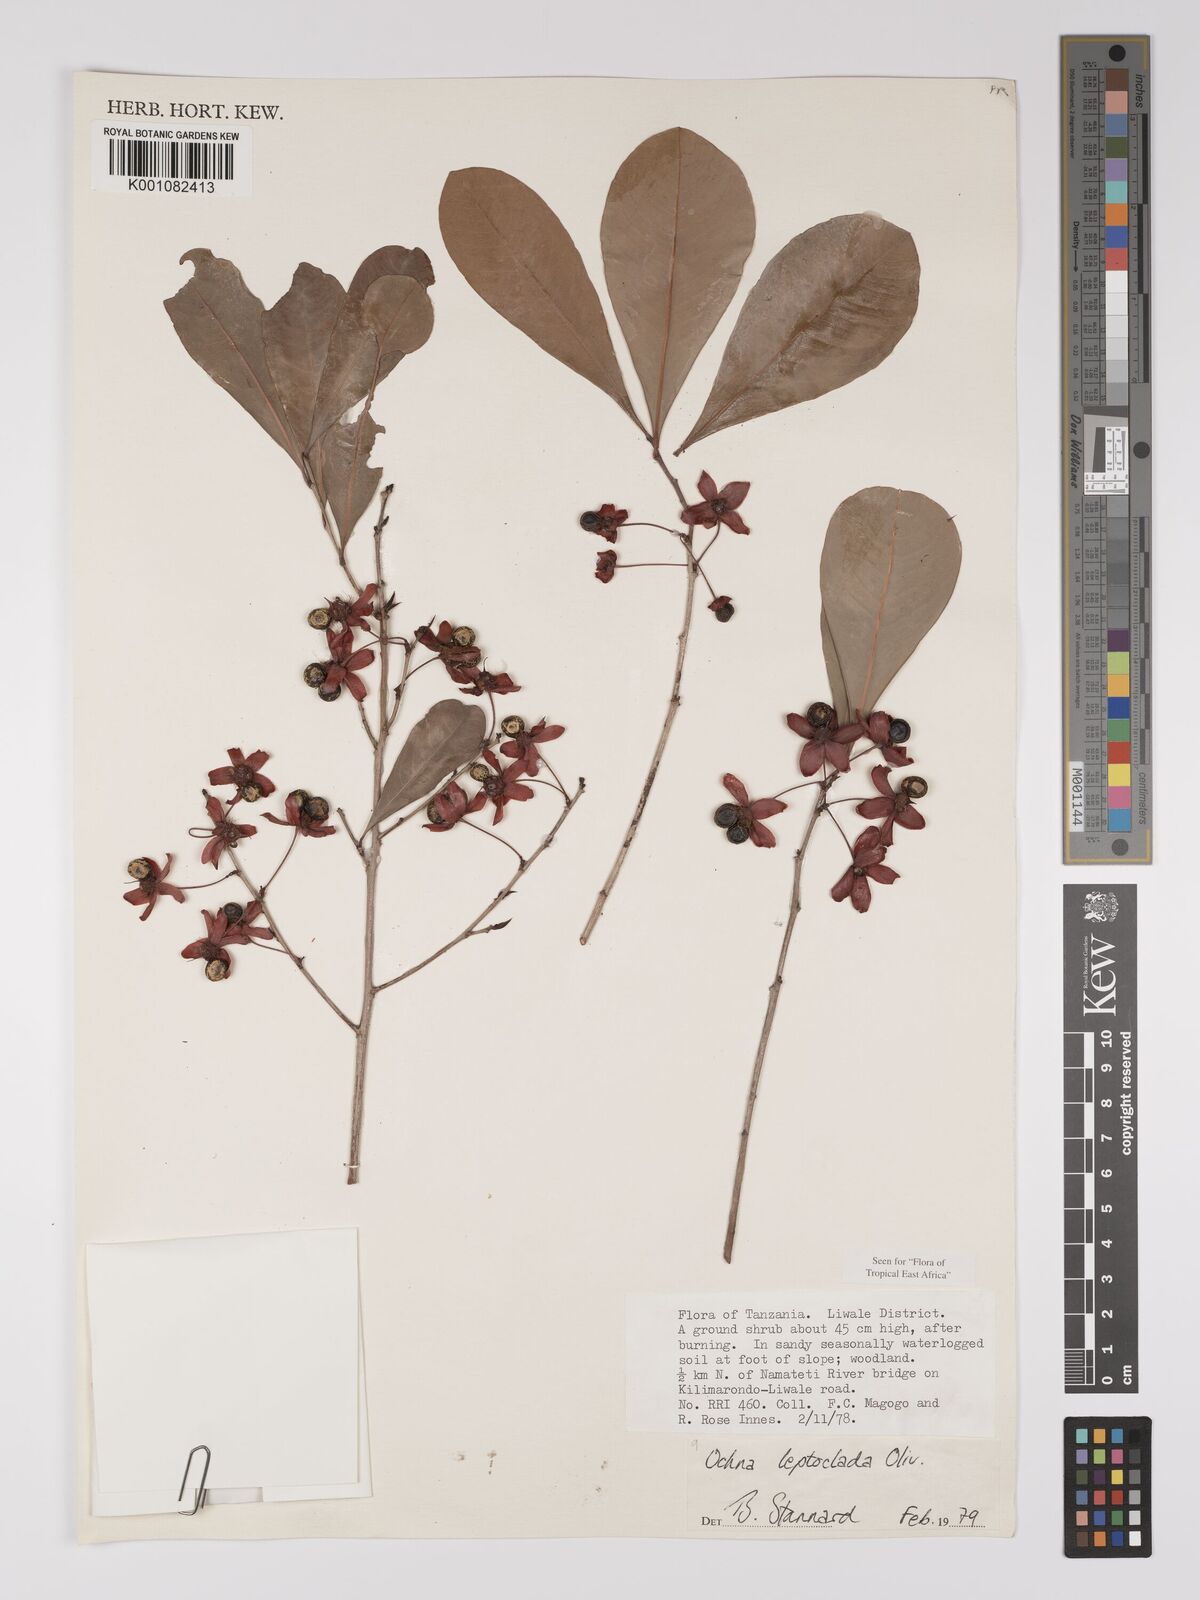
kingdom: Plantae
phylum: Tracheophyta
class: Magnoliopsida
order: Malpighiales
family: Ochnaceae
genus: Ochna
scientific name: Ochna leptoclada
